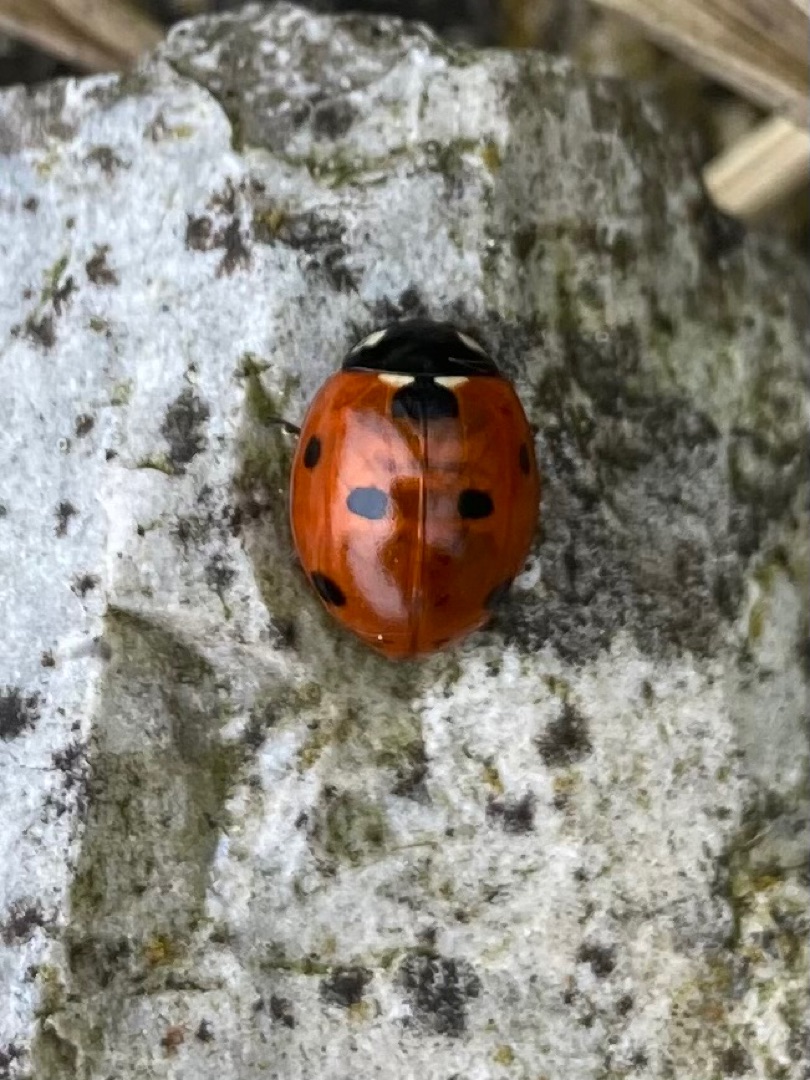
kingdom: Animalia
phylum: Arthropoda
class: Insecta
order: Coleoptera
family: Coccinellidae
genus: Coccinella
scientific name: Coccinella septempunctata
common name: Syvplettet mariehøne
